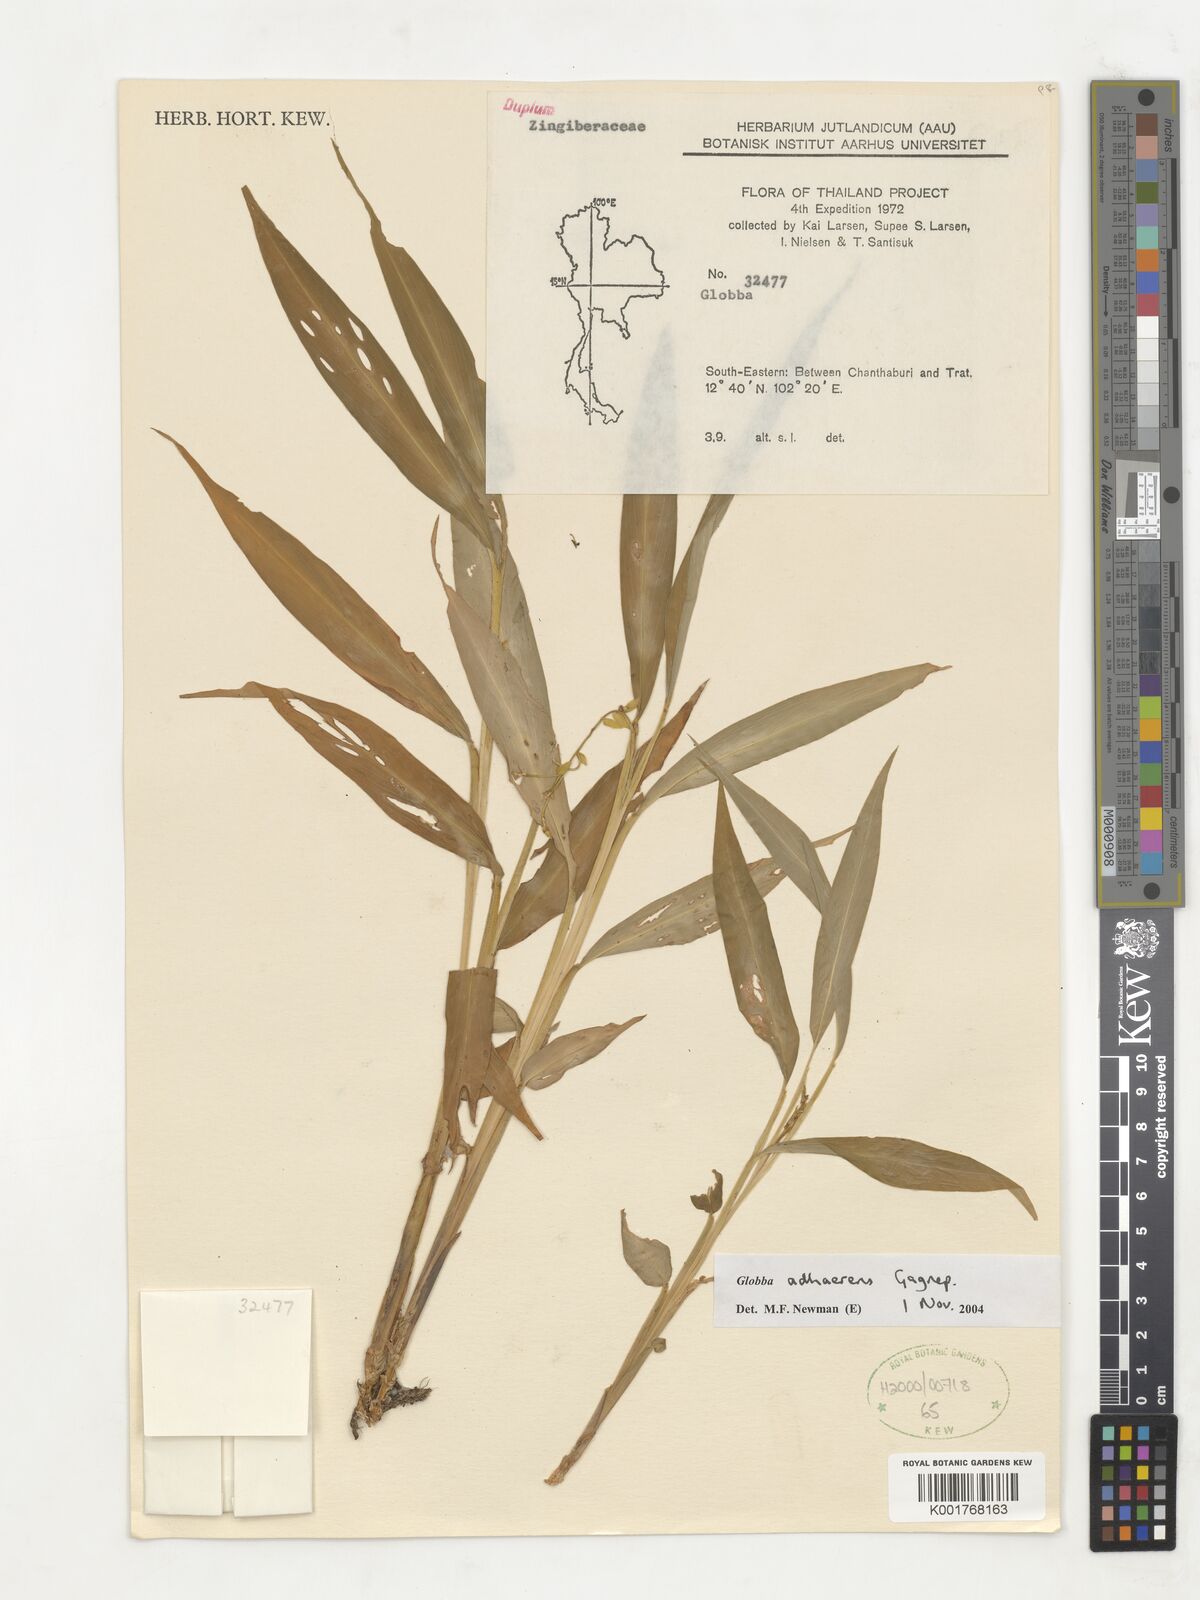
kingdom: Plantae
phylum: Tracheophyta
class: Liliopsida
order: Zingiberales
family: Zingiberaceae
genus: Globba
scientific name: Globba adhaerens
